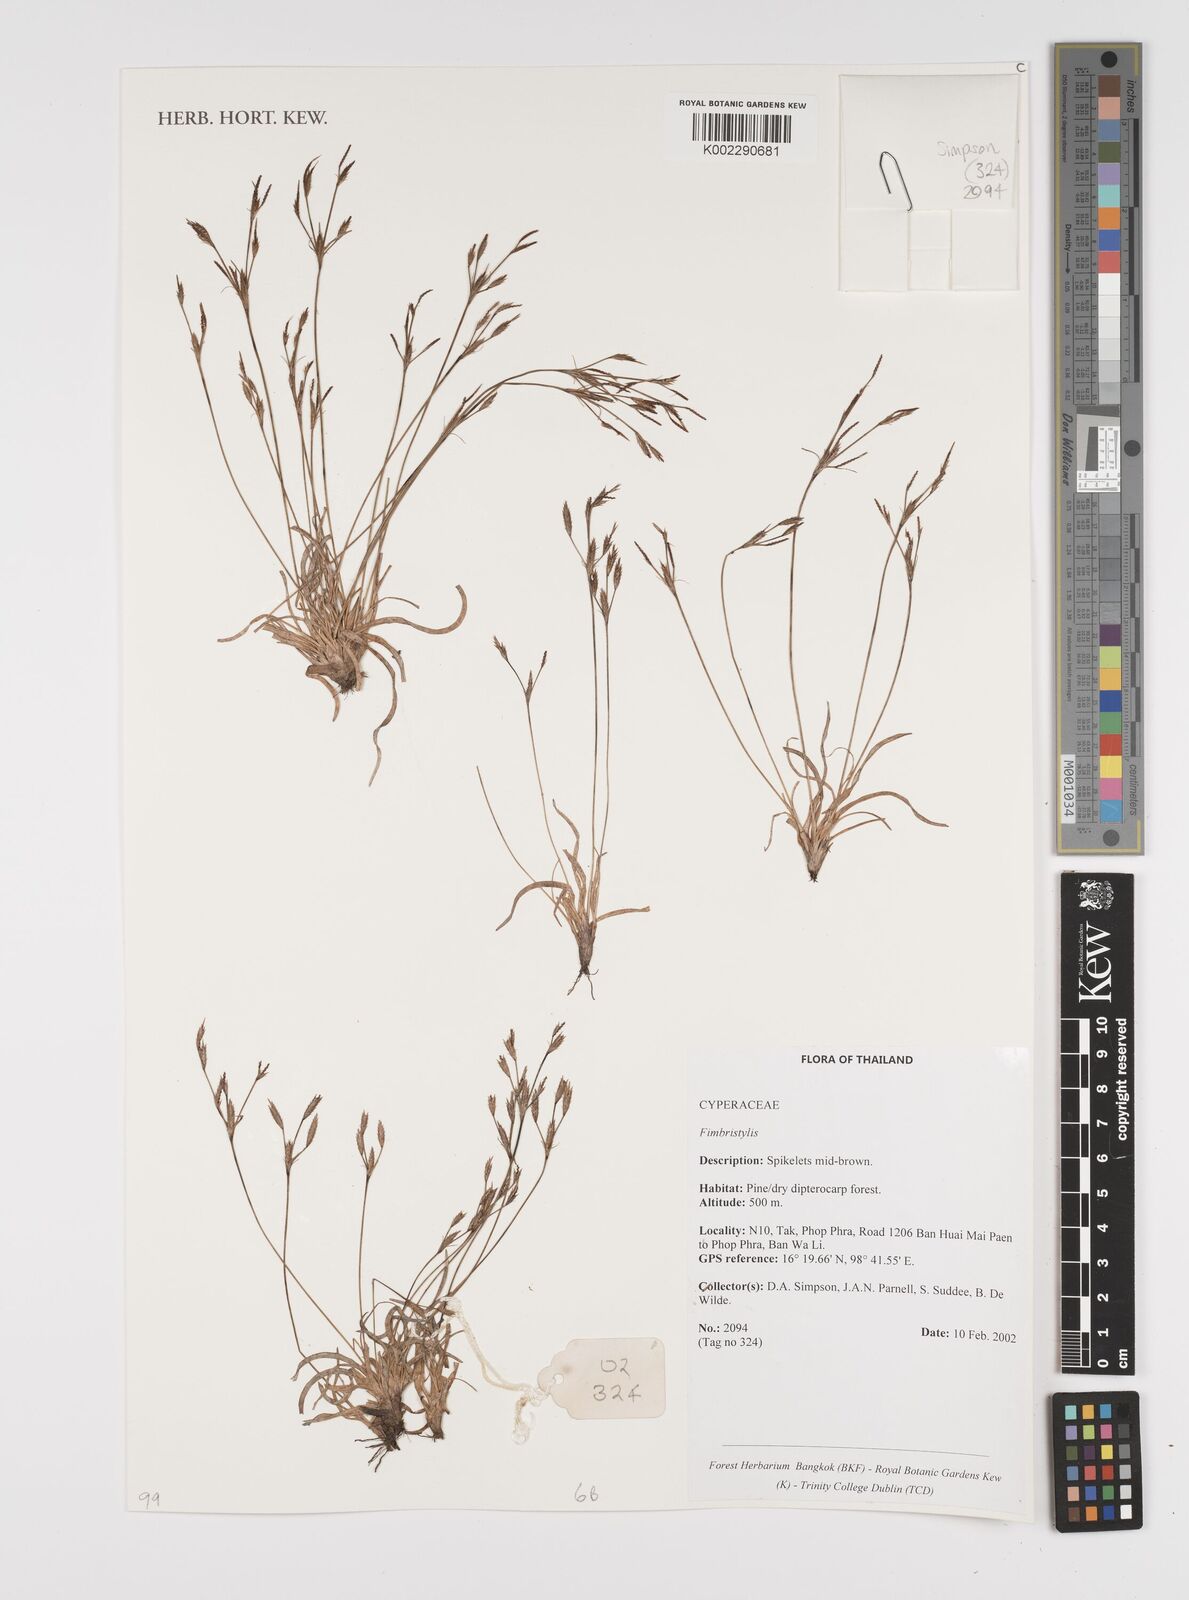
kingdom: Plantae
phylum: Tracheophyta
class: Liliopsida
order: Poales
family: Cyperaceae
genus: Fimbristylis
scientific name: Fimbristylis
